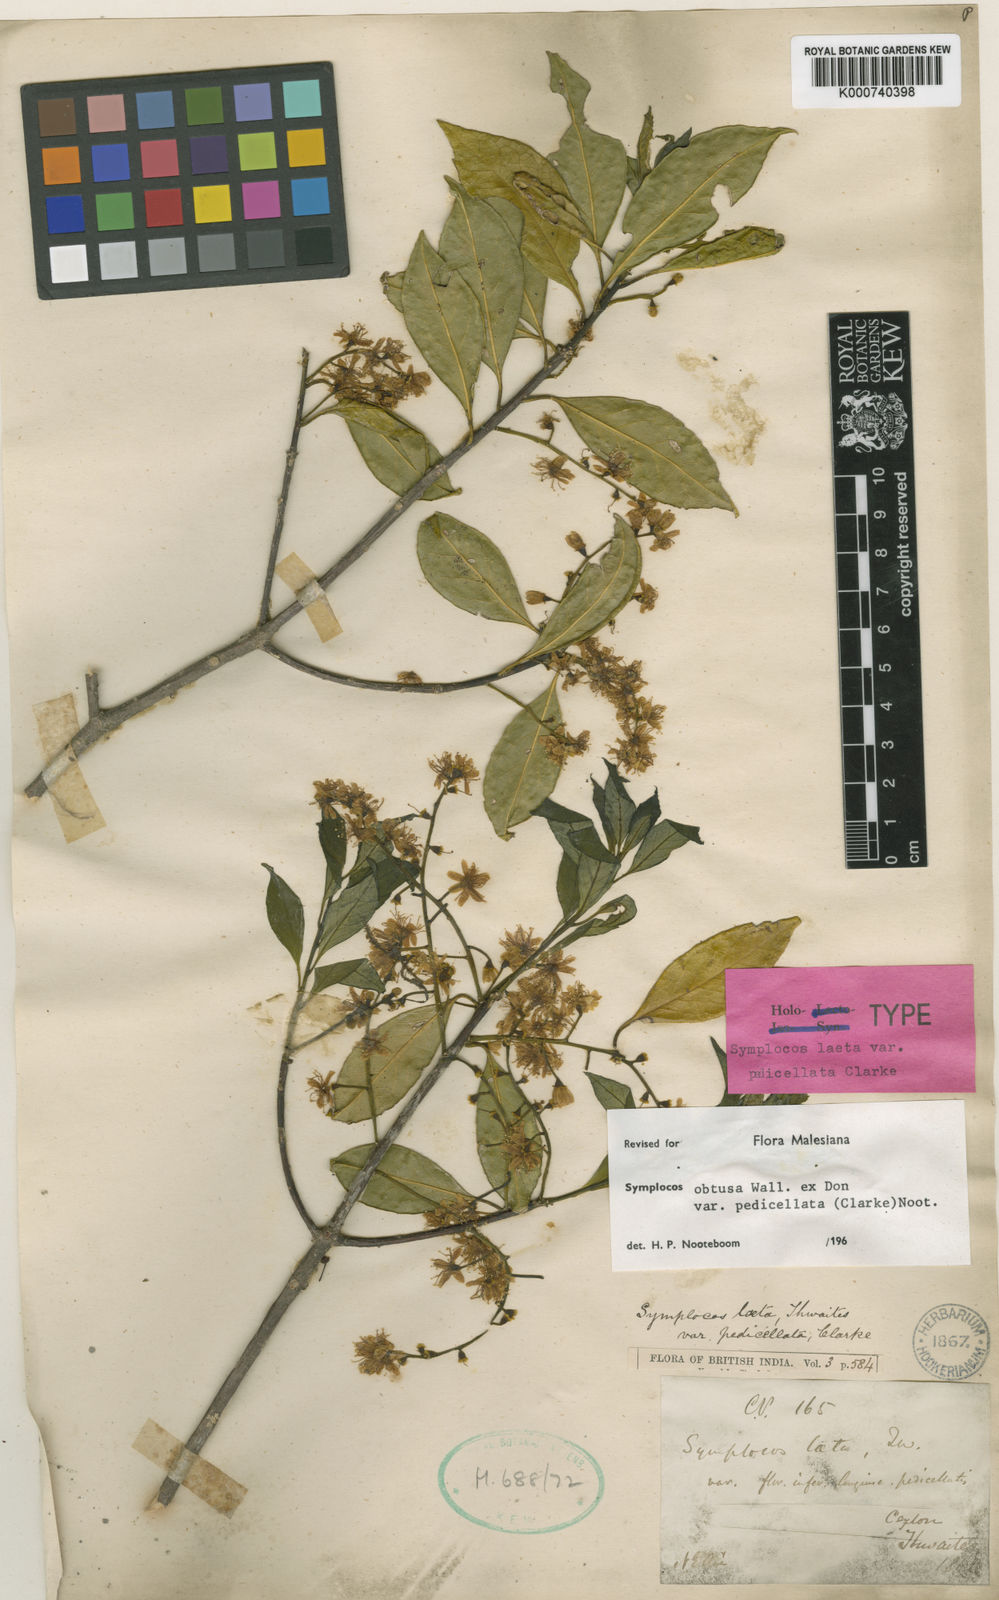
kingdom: Plantae
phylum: Tracheophyta
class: Magnoliopsida
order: Ericales
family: Symplocaceae
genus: Symplocos
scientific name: Symplocos obtusa
